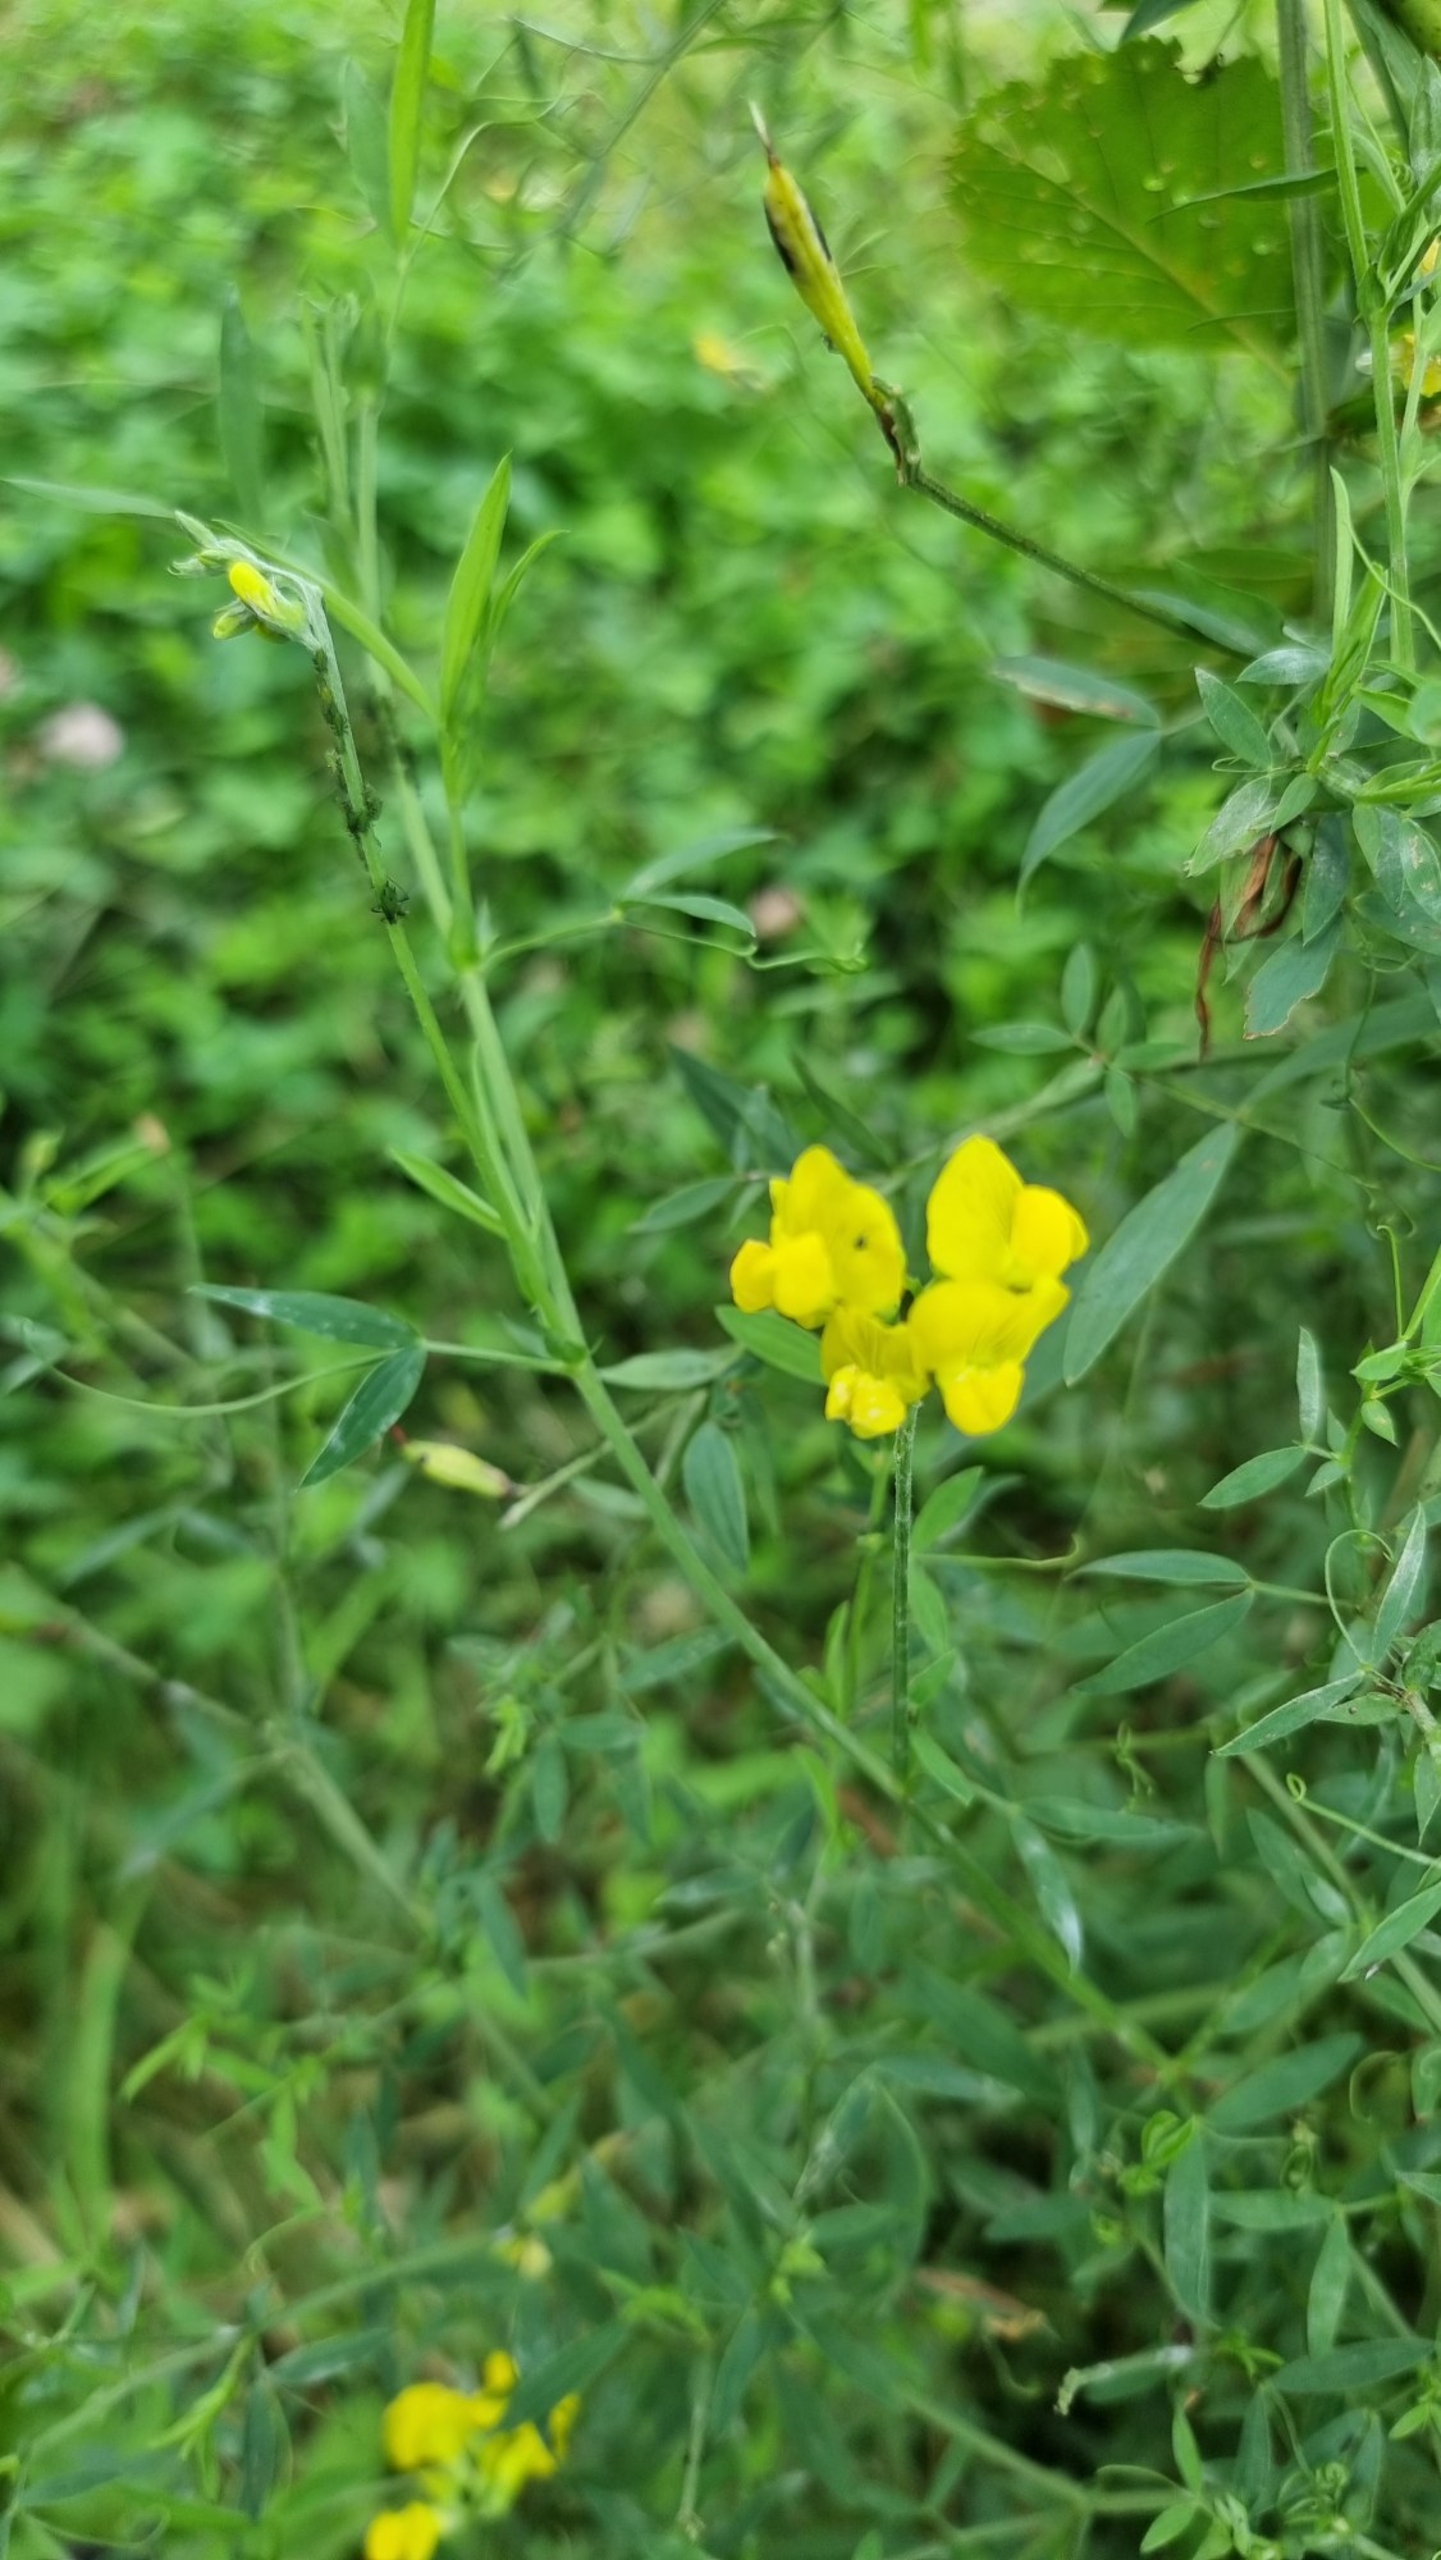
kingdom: Plantae
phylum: Tracheophyta
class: Magnoliopsida
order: Fabales
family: Fabaceae
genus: Lathyrus
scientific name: Lathyrus pratensis
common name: Gul fladbælg
